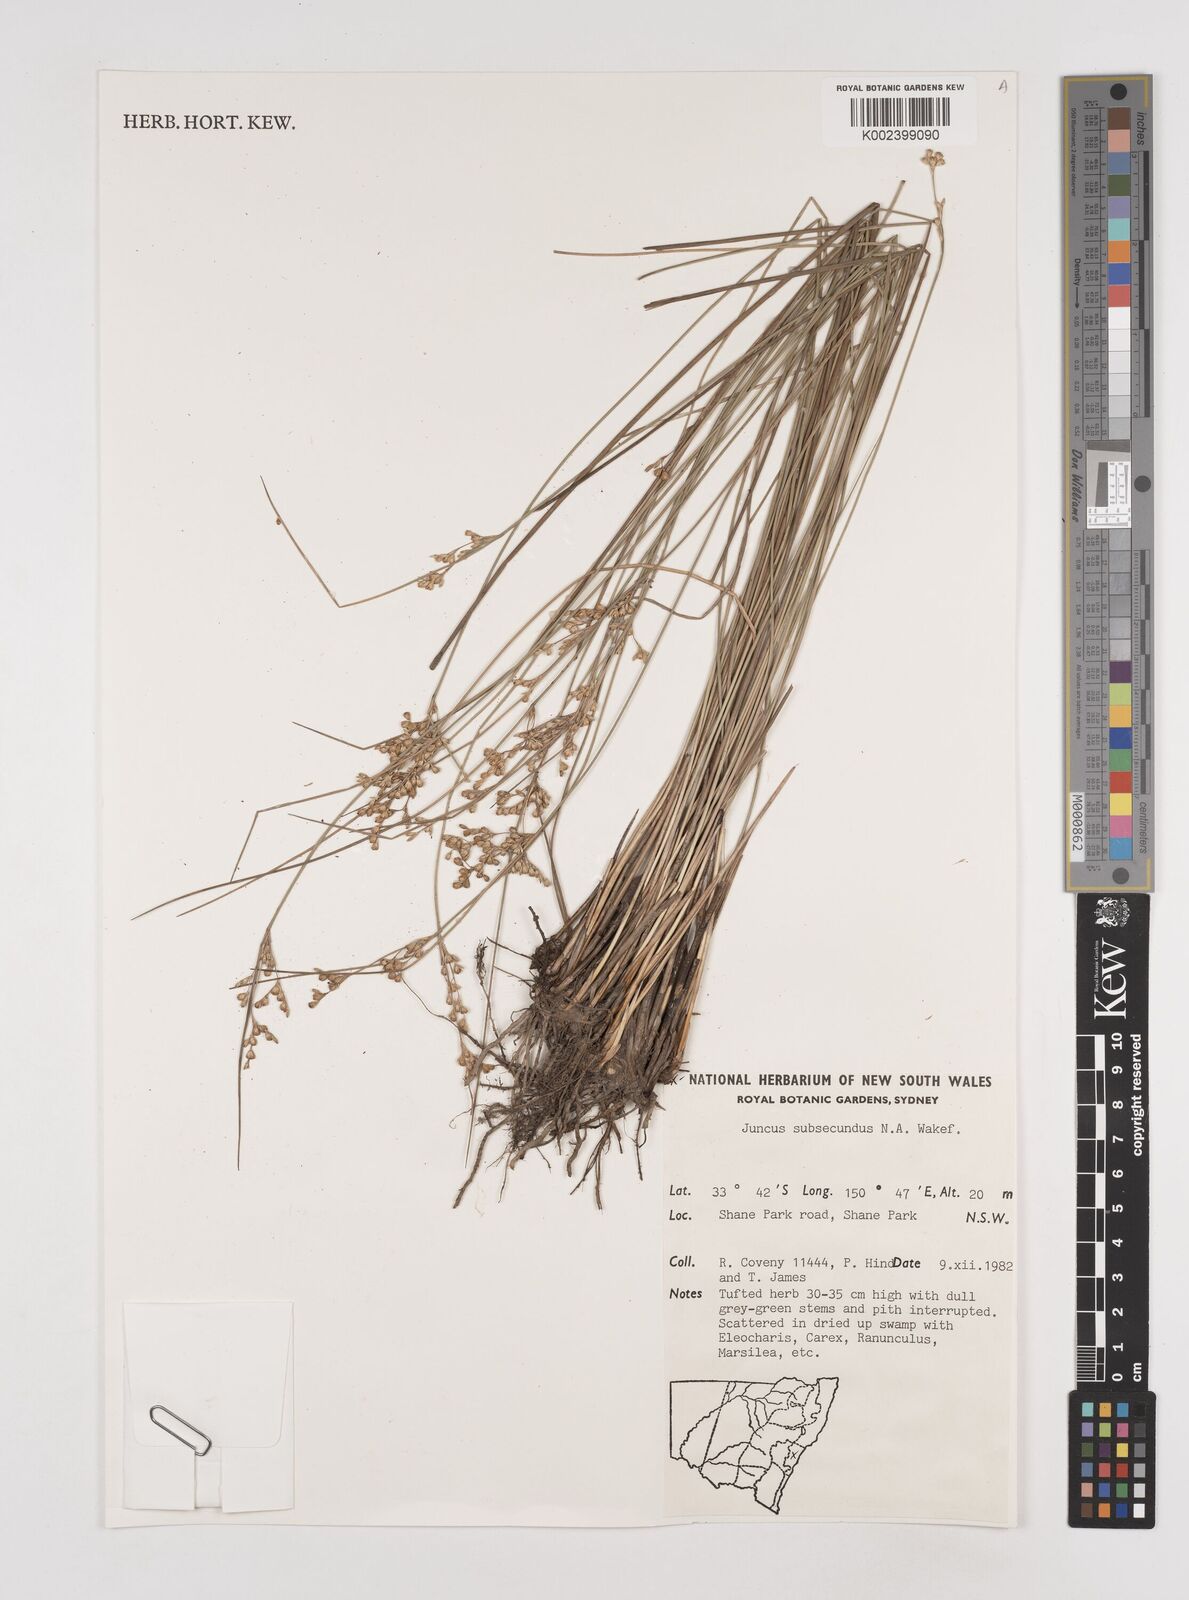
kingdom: Plantae
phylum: Tracheophyta
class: Liliopsida
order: Poales
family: Juncaceae
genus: Juncus
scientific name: Juncus subsecundus
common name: Fingered rush
